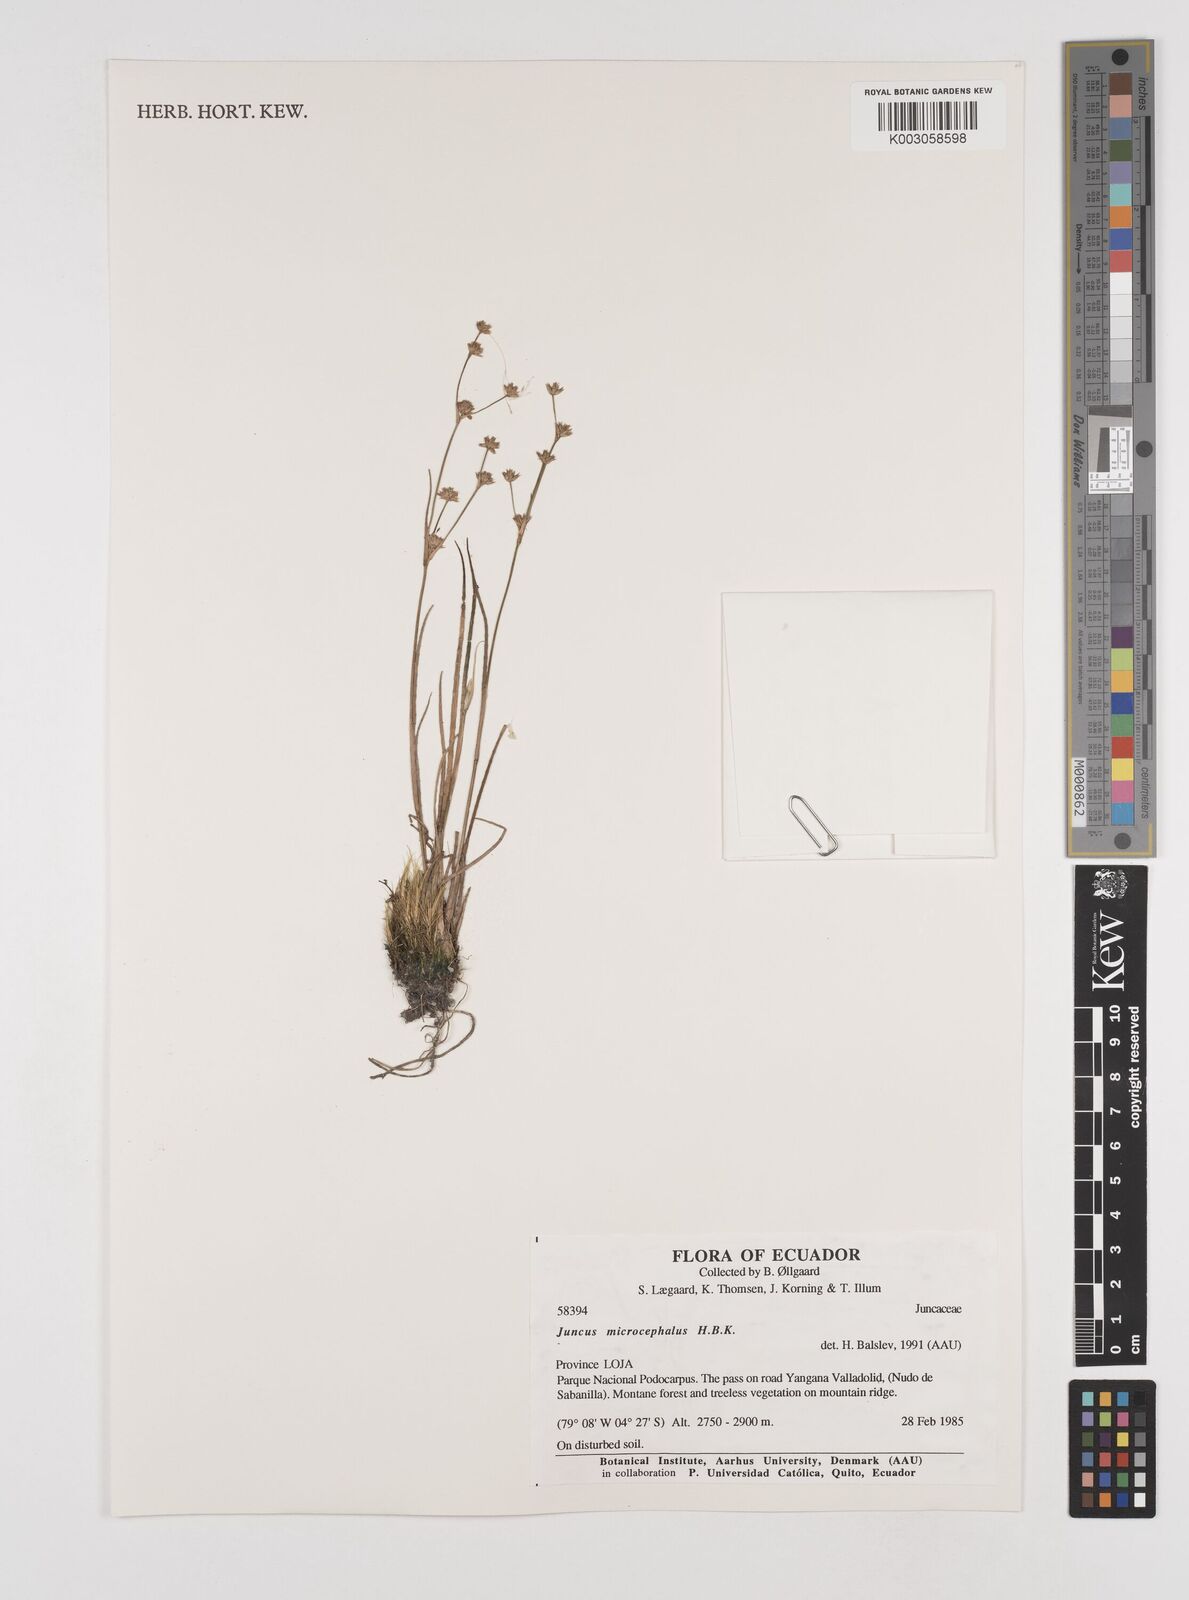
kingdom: Plantae
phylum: Tracheophyta
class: Liliopsida
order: Poales
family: Juncaceae
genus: Juncus
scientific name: Juncus
